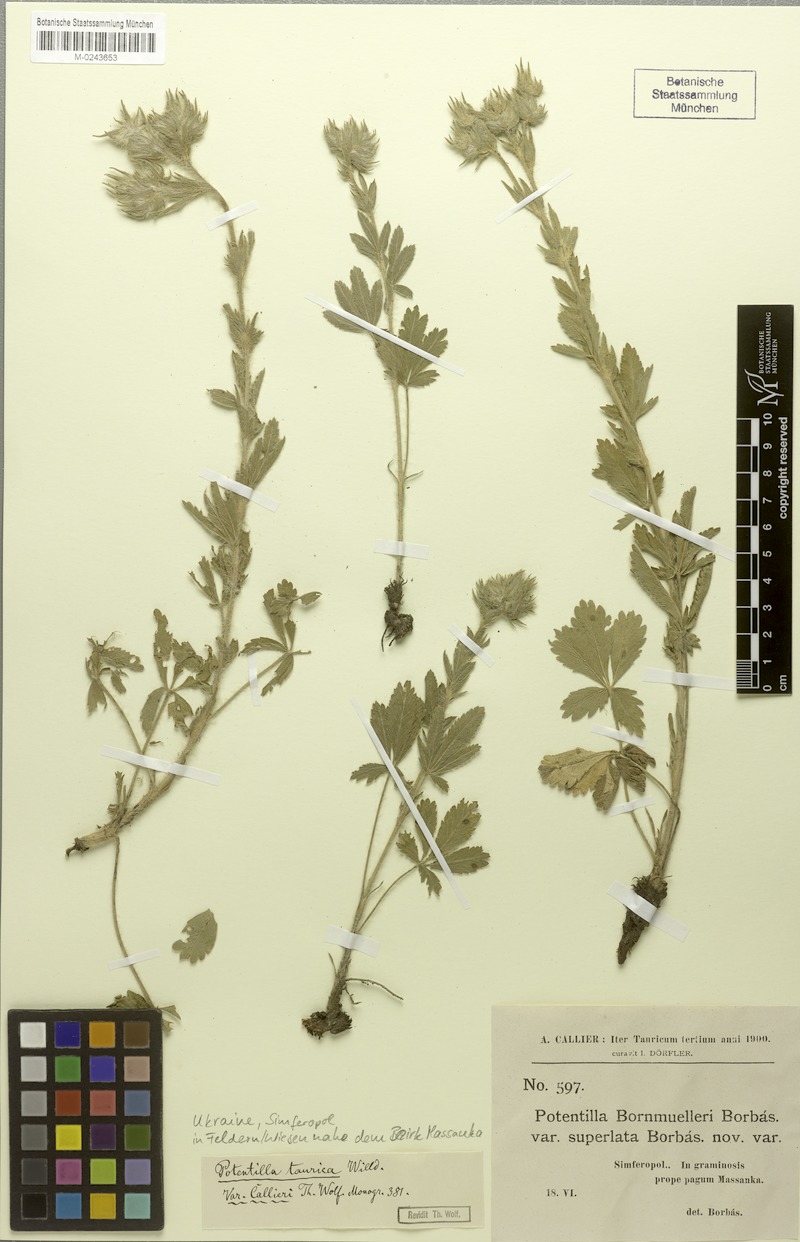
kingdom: Plantae
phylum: Tracheophyta
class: Magnoliopsida
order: Rosales
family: Rosaceae
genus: Potentilla
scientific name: Potentilla taurica
